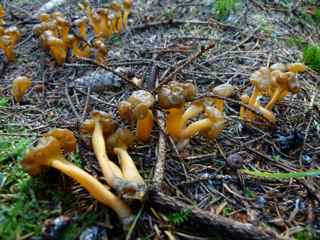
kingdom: Fungi
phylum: Ascomycota
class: Leotiomycetes
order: Leotiales
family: Leotiaceae
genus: Leotia
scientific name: Leotia lubrica
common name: ravsvamp
